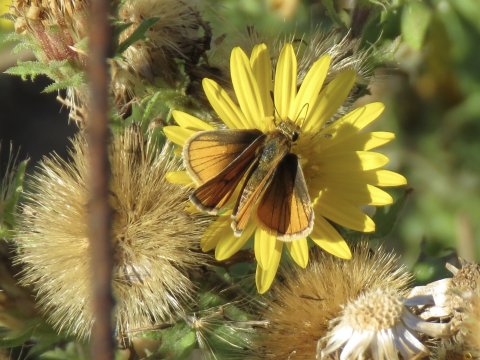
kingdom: Animalia
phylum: Arthropoda
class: Insecta
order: Lepidoptera
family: Hesperiidae
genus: Copaeodes
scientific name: Copaeodes minima
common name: Southern Skipperling
